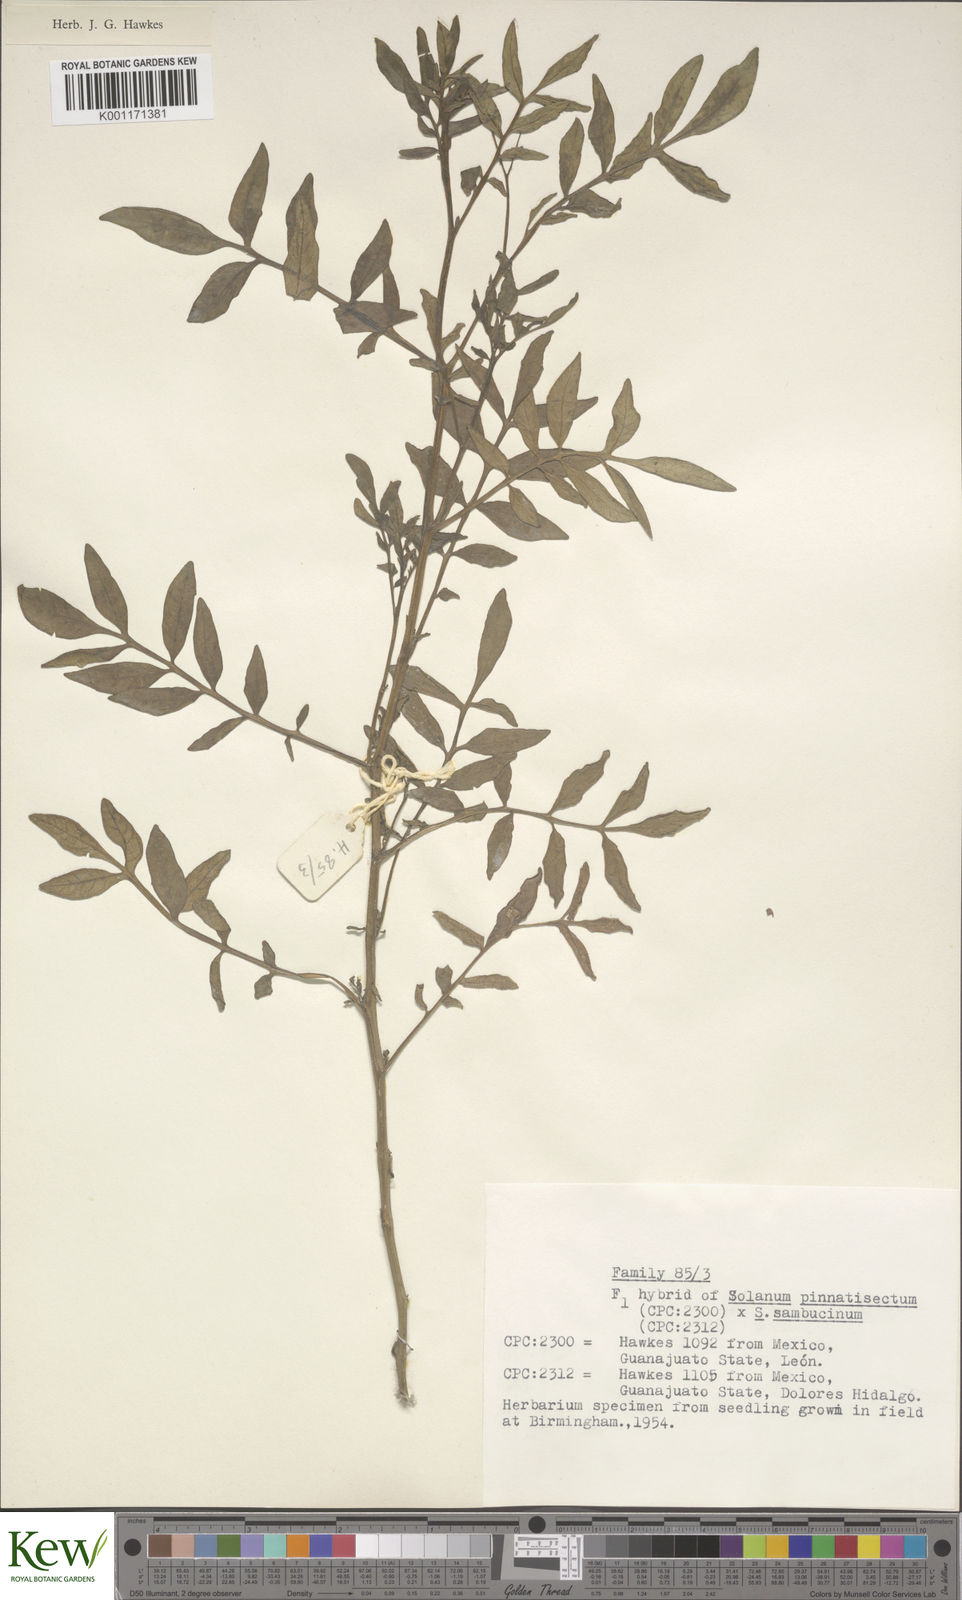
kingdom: Plantae
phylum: Tracheophyta
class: Magnoliopsida
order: Solanales
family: Solanaceae
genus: Solanum
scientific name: Solanum pinnatisectum
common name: Tansyleaf nightshade
